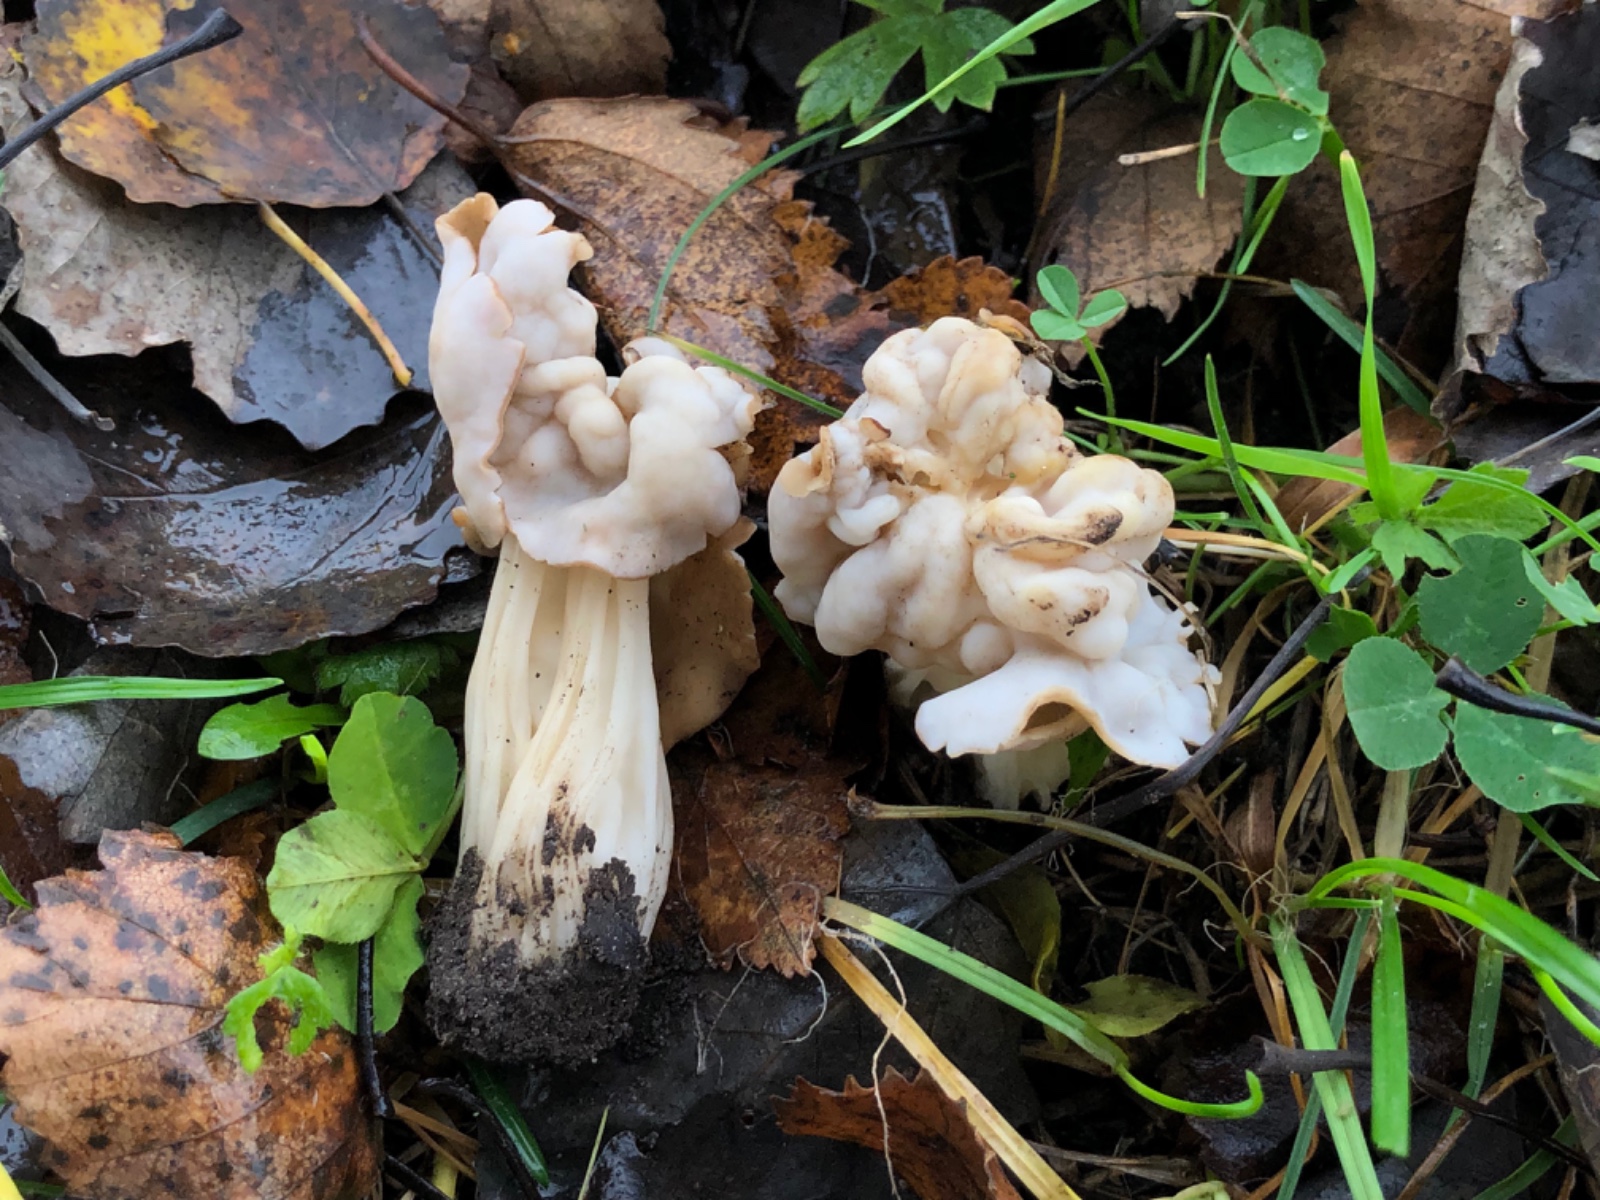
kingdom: Fungi
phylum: Ascomycota
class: Pezizomycetes
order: Pezizales
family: Helvellaceae
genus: Helvella
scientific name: Helvella crispa
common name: kruset foldhat
